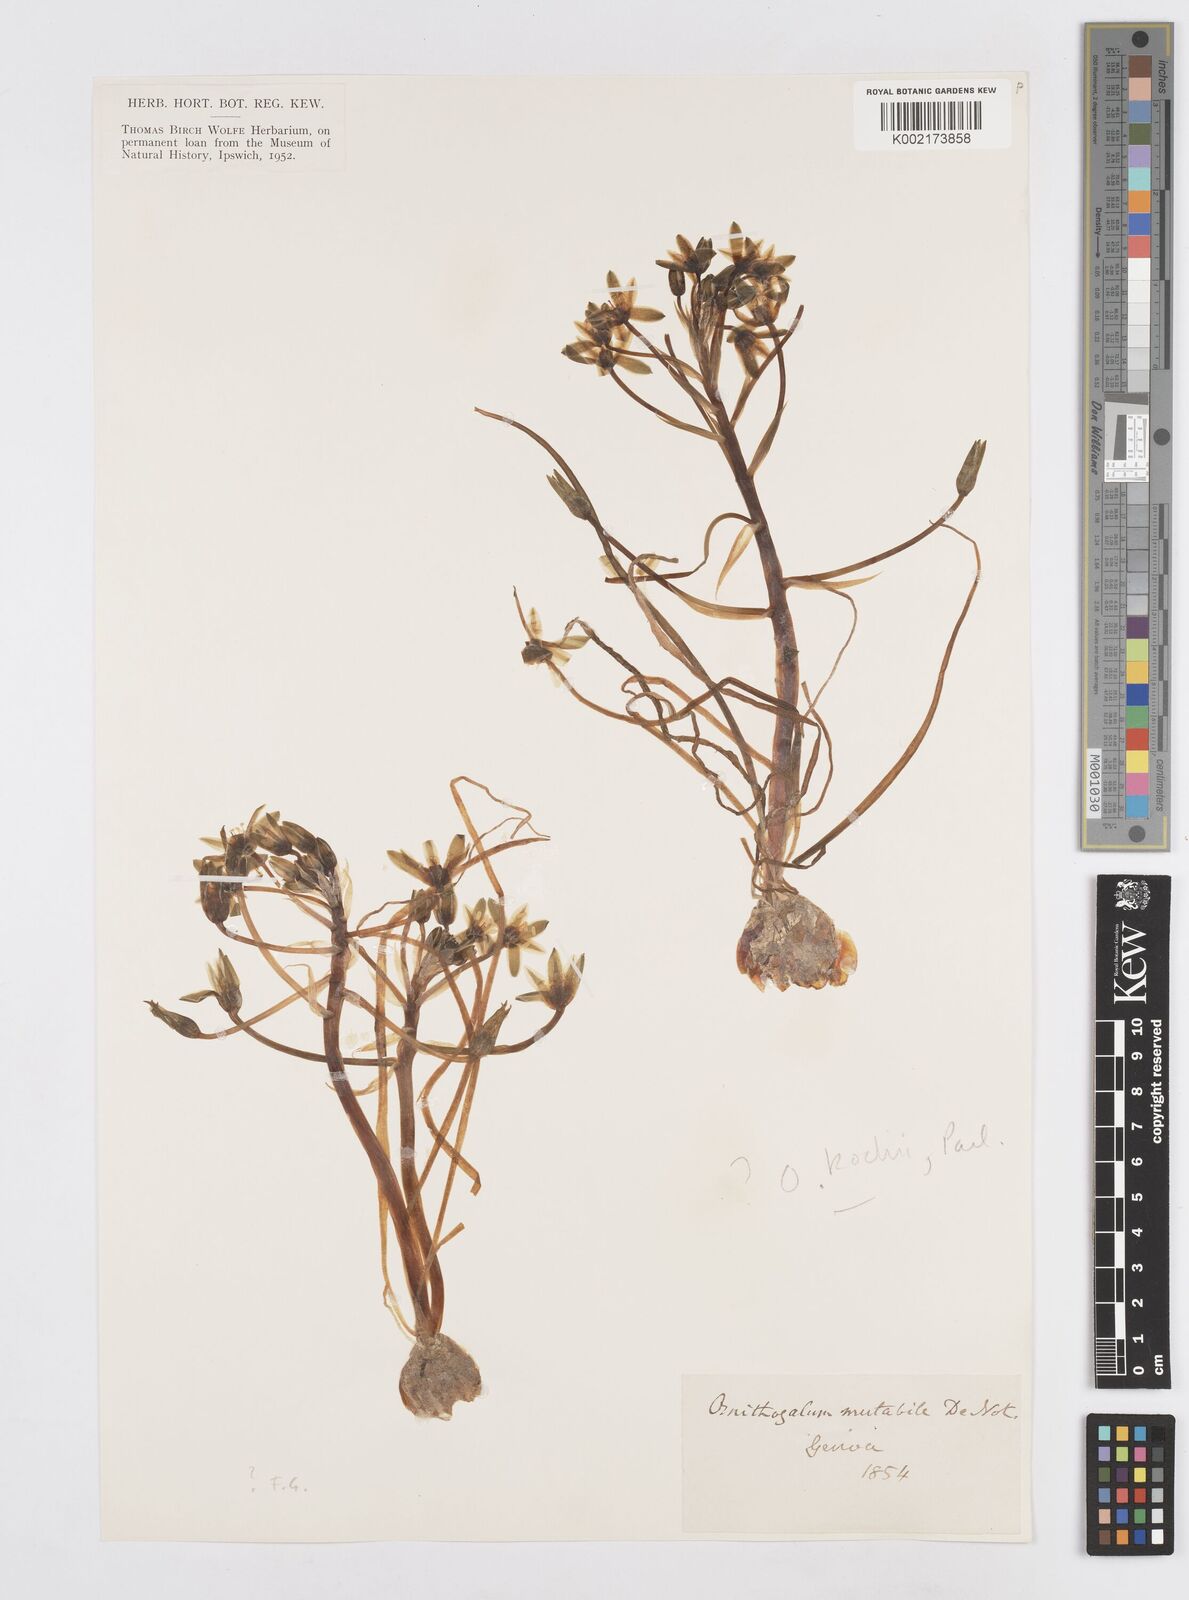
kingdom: Plantae
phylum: Tracheophyta
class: Liliopsida
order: Asparagales
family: Asparagaceae
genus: Ornithogalum
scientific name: Ornithogalum orthophyllum
